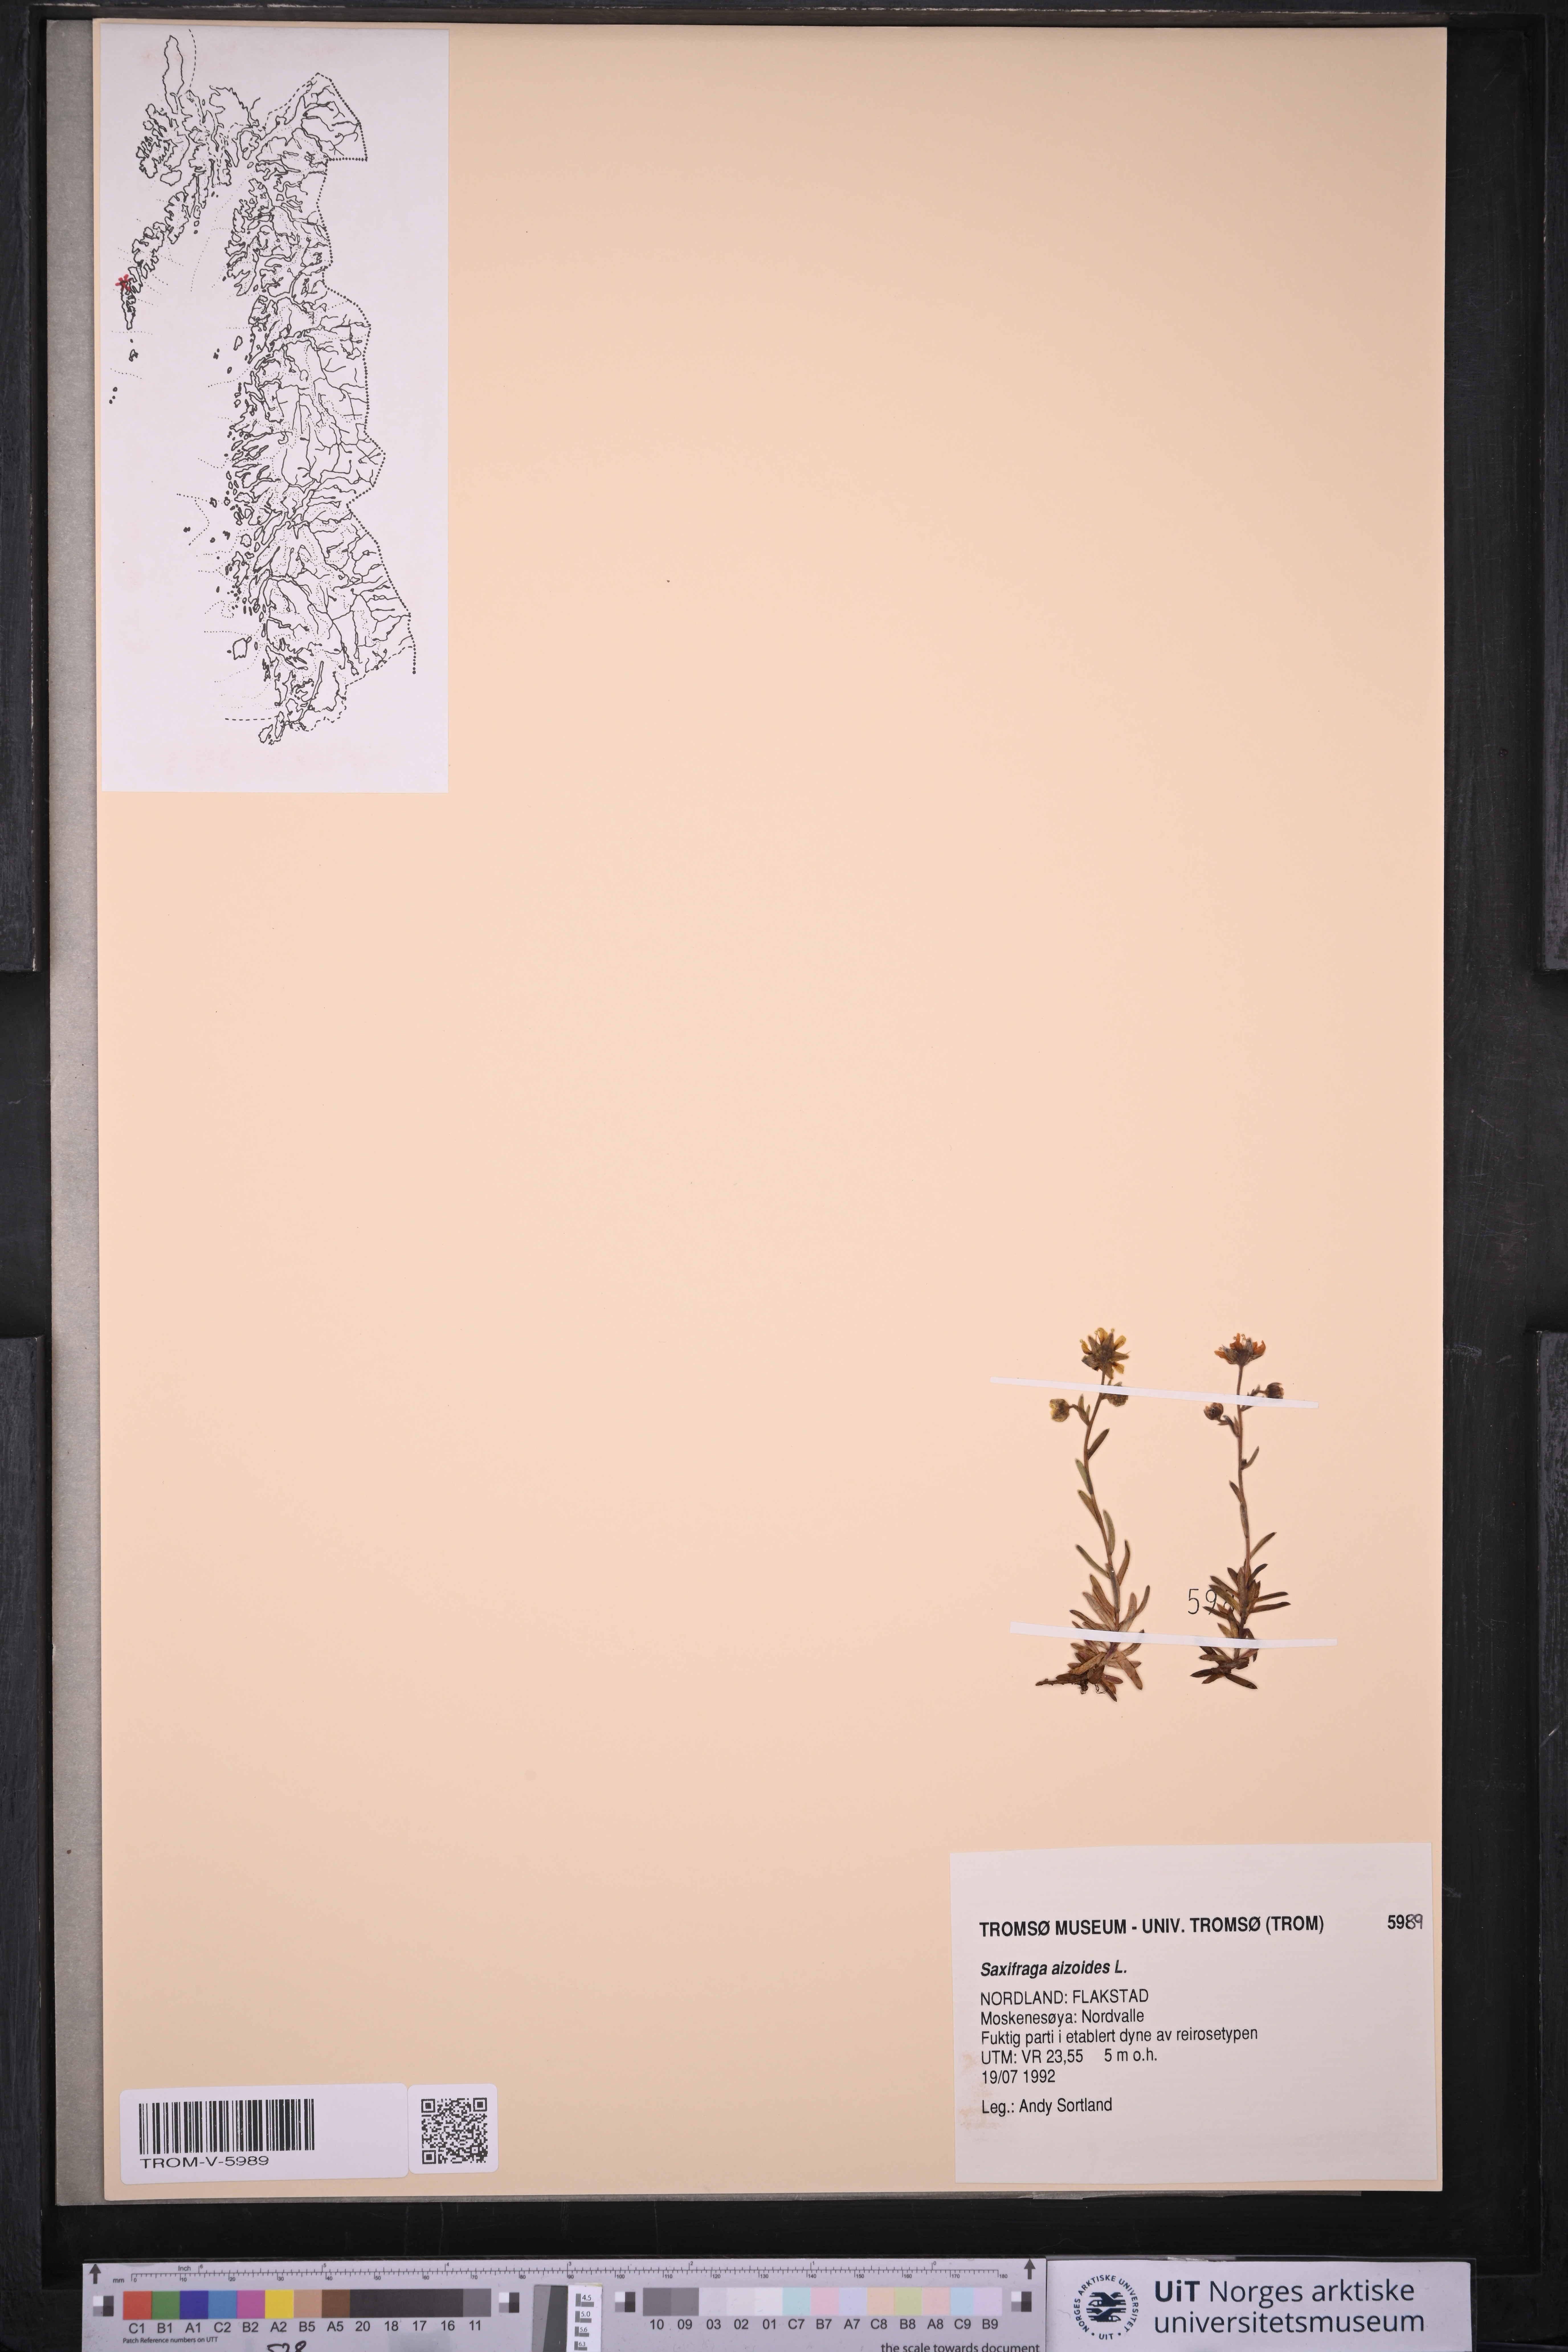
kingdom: Plantae
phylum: Tracheophyta
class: Magnoliopsida
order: Saxifragales
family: Saxifragaceae
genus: Saxifraga
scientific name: Saxifraga aizoides
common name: Yellow mountain saxifrage
